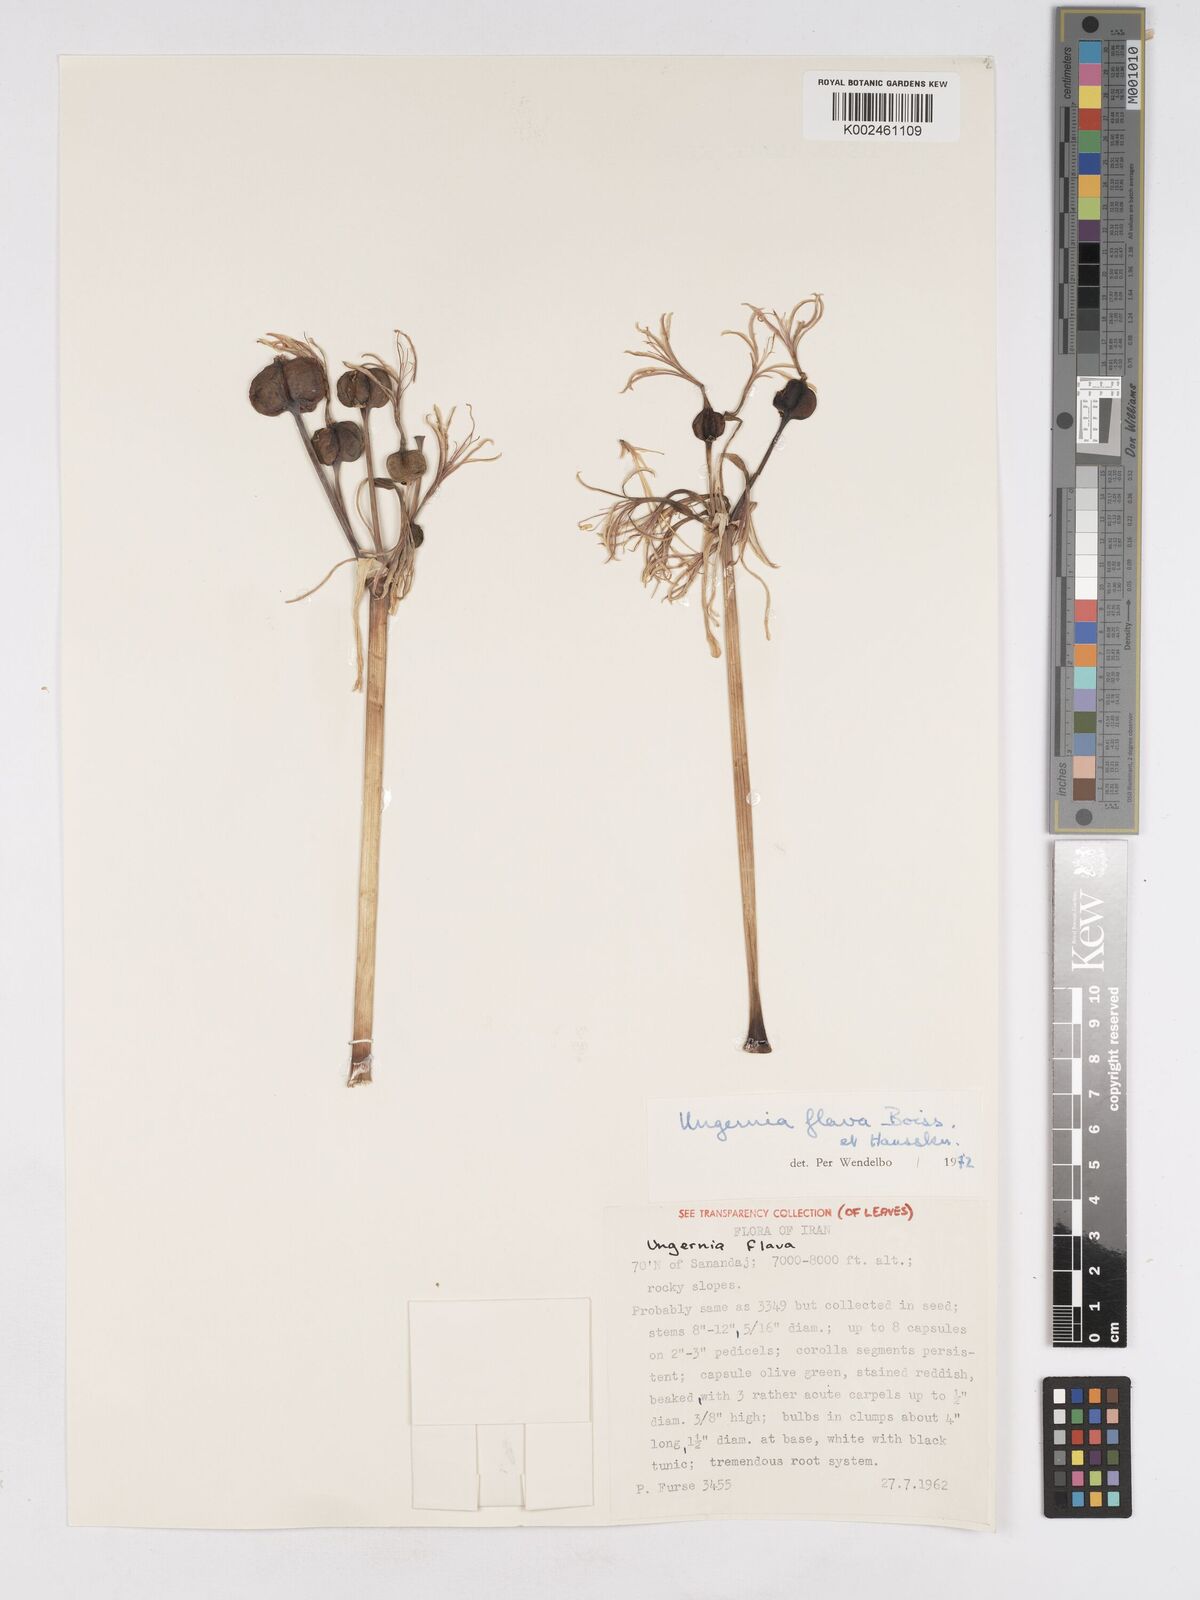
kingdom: Plantae
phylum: Tracheophyta
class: Liliopsida
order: Asparagales
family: Amaryllidaceae
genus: Ungernia
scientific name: Ungernia flava
